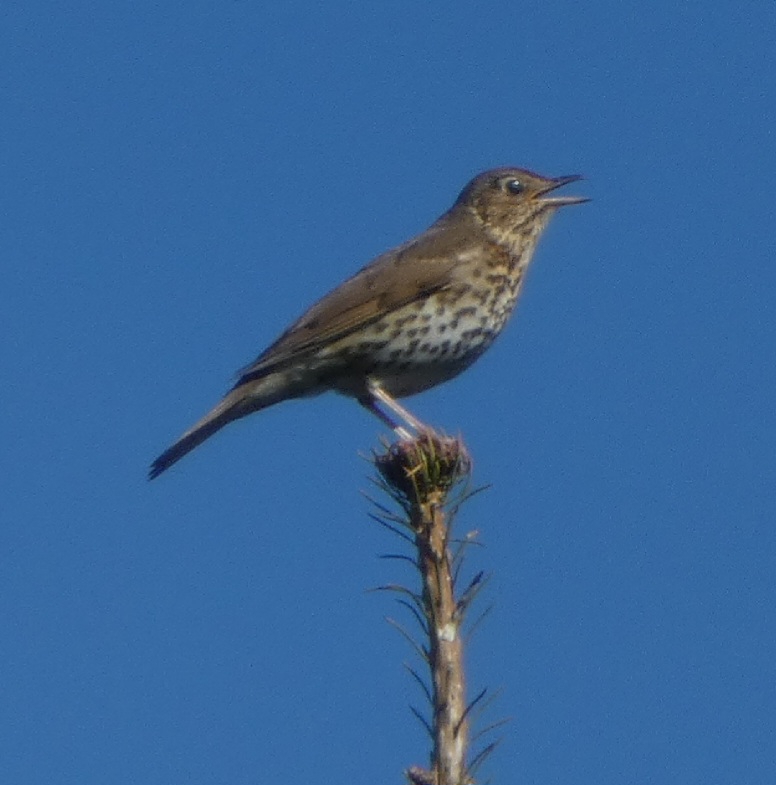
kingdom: Animalia
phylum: Chordata
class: Aves
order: Passeriformes
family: Turdidae
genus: Turdus
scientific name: Turdus philomelos
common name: Sangdrossel
